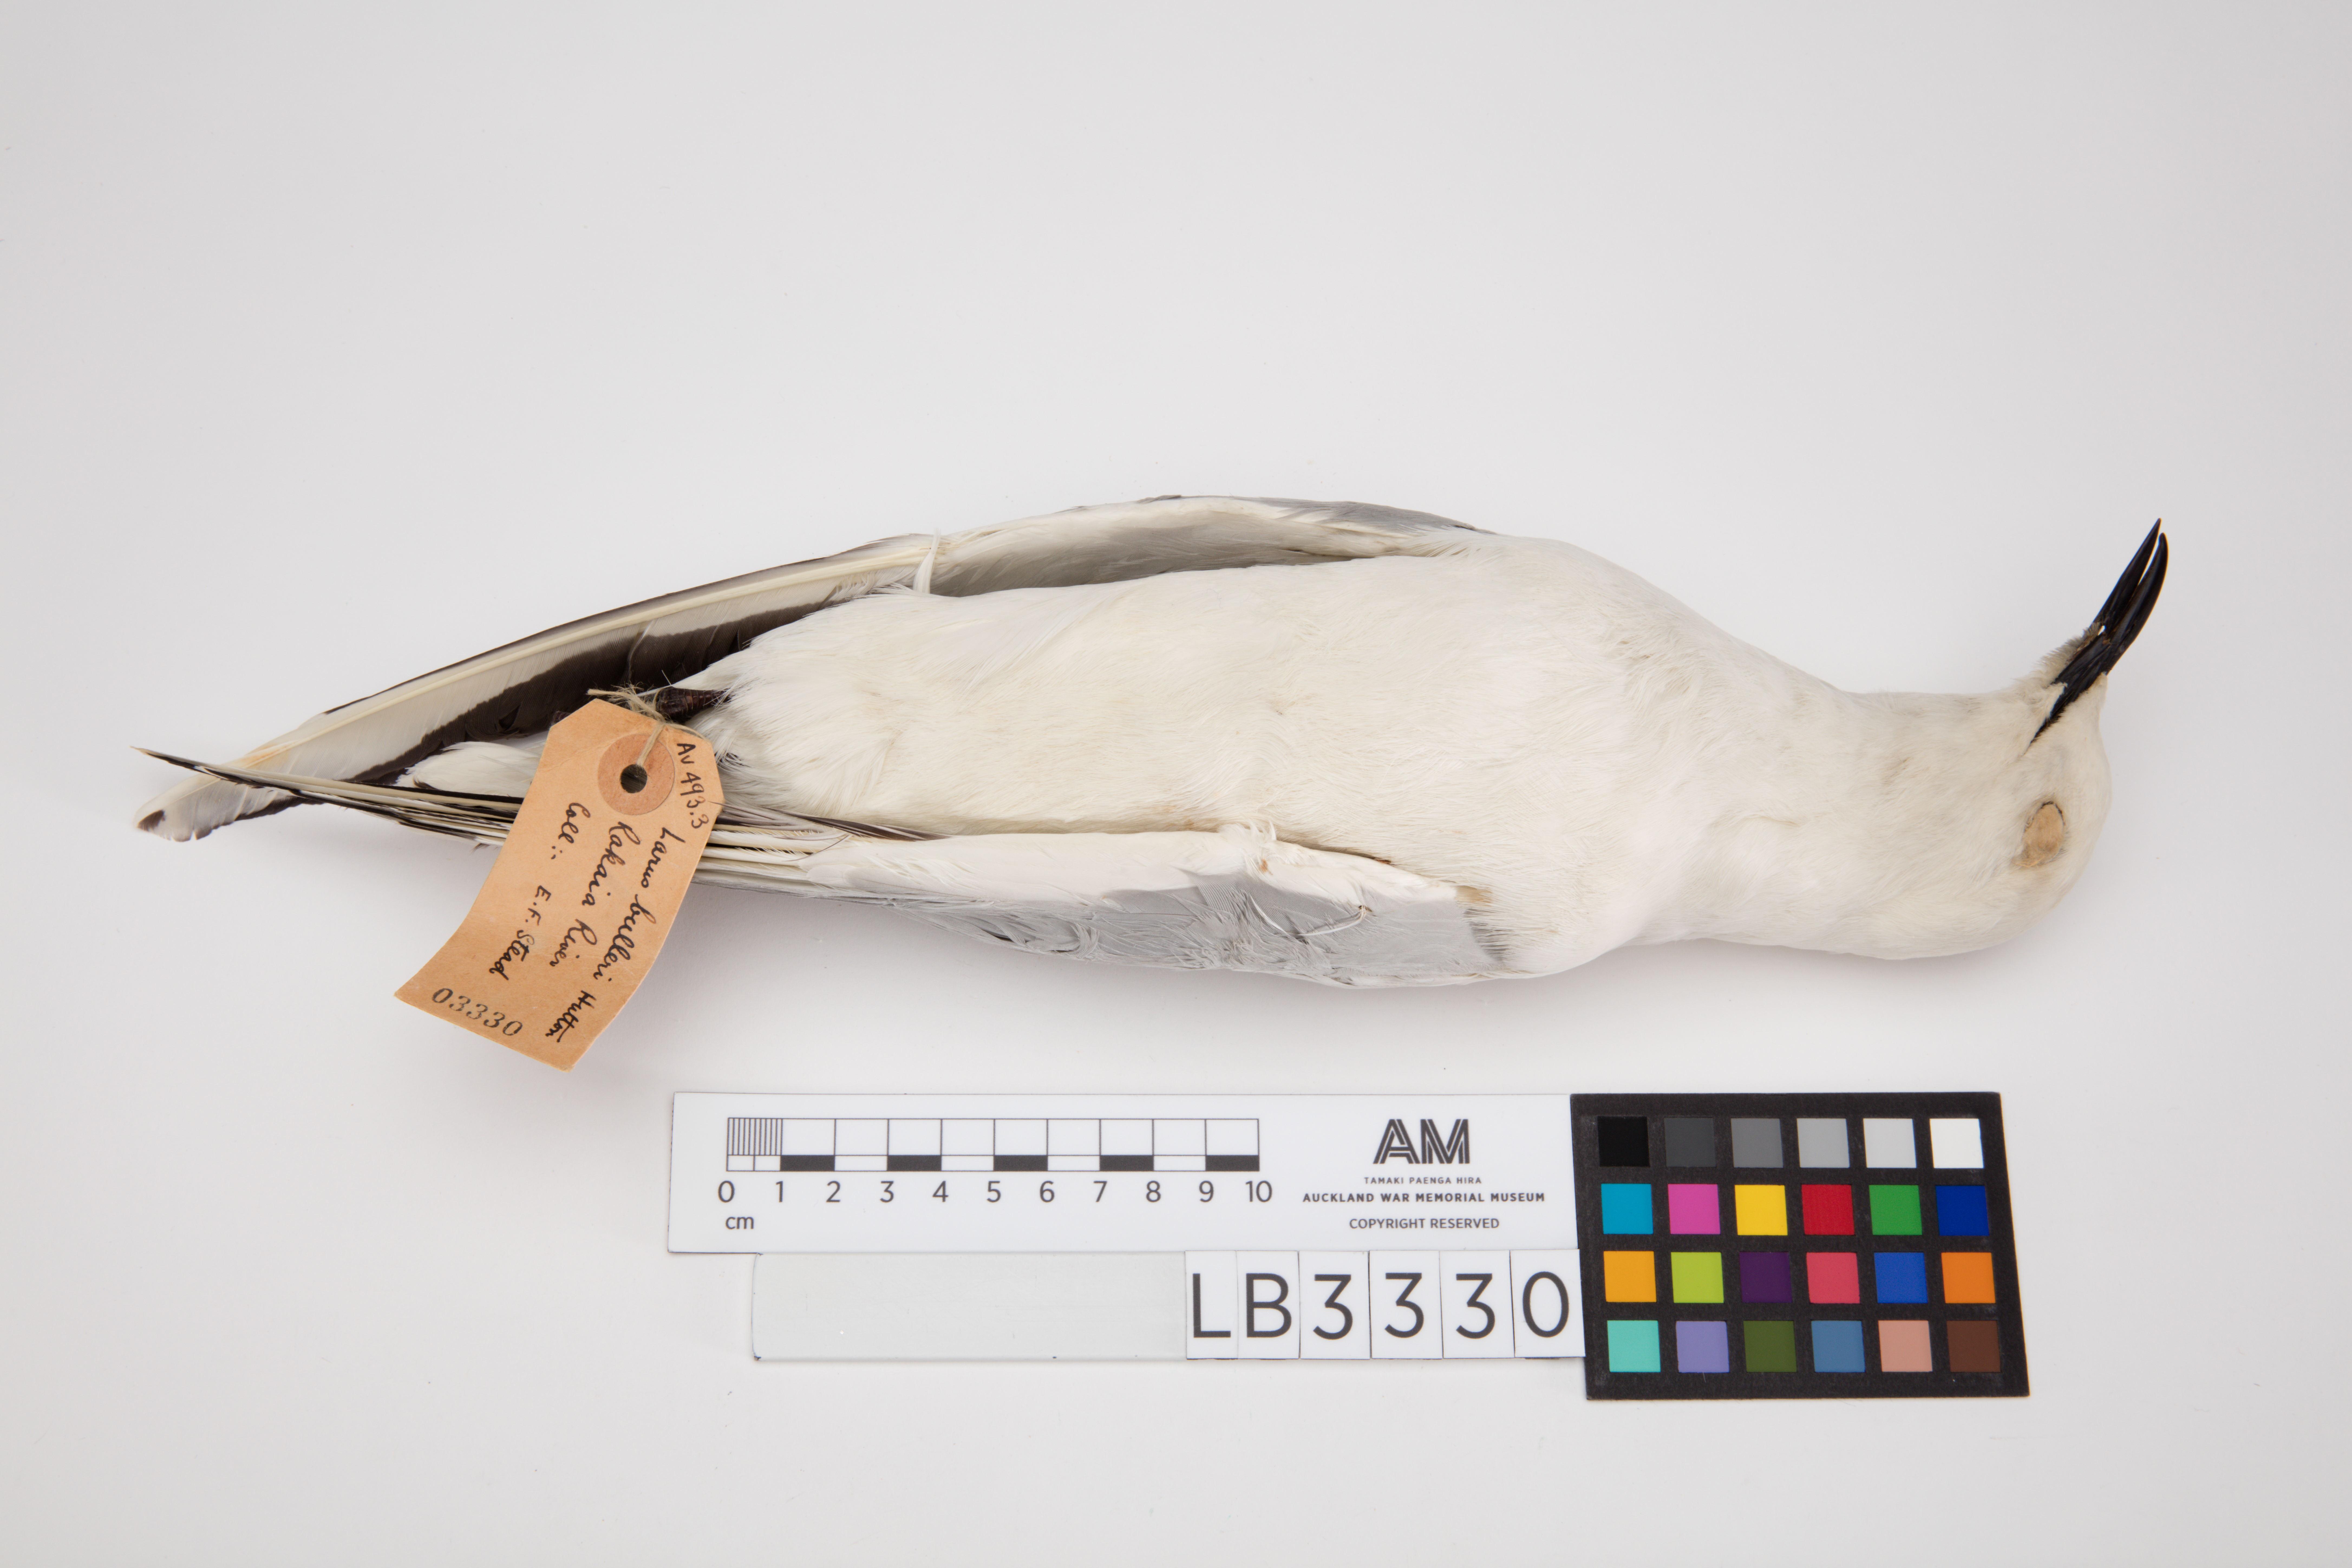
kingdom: Animalia
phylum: Chordata
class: Aves
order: Charadriiformes
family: Laridae
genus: Chroicocephalus
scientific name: Chroicocephalus bulleri
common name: Black-billed gull
